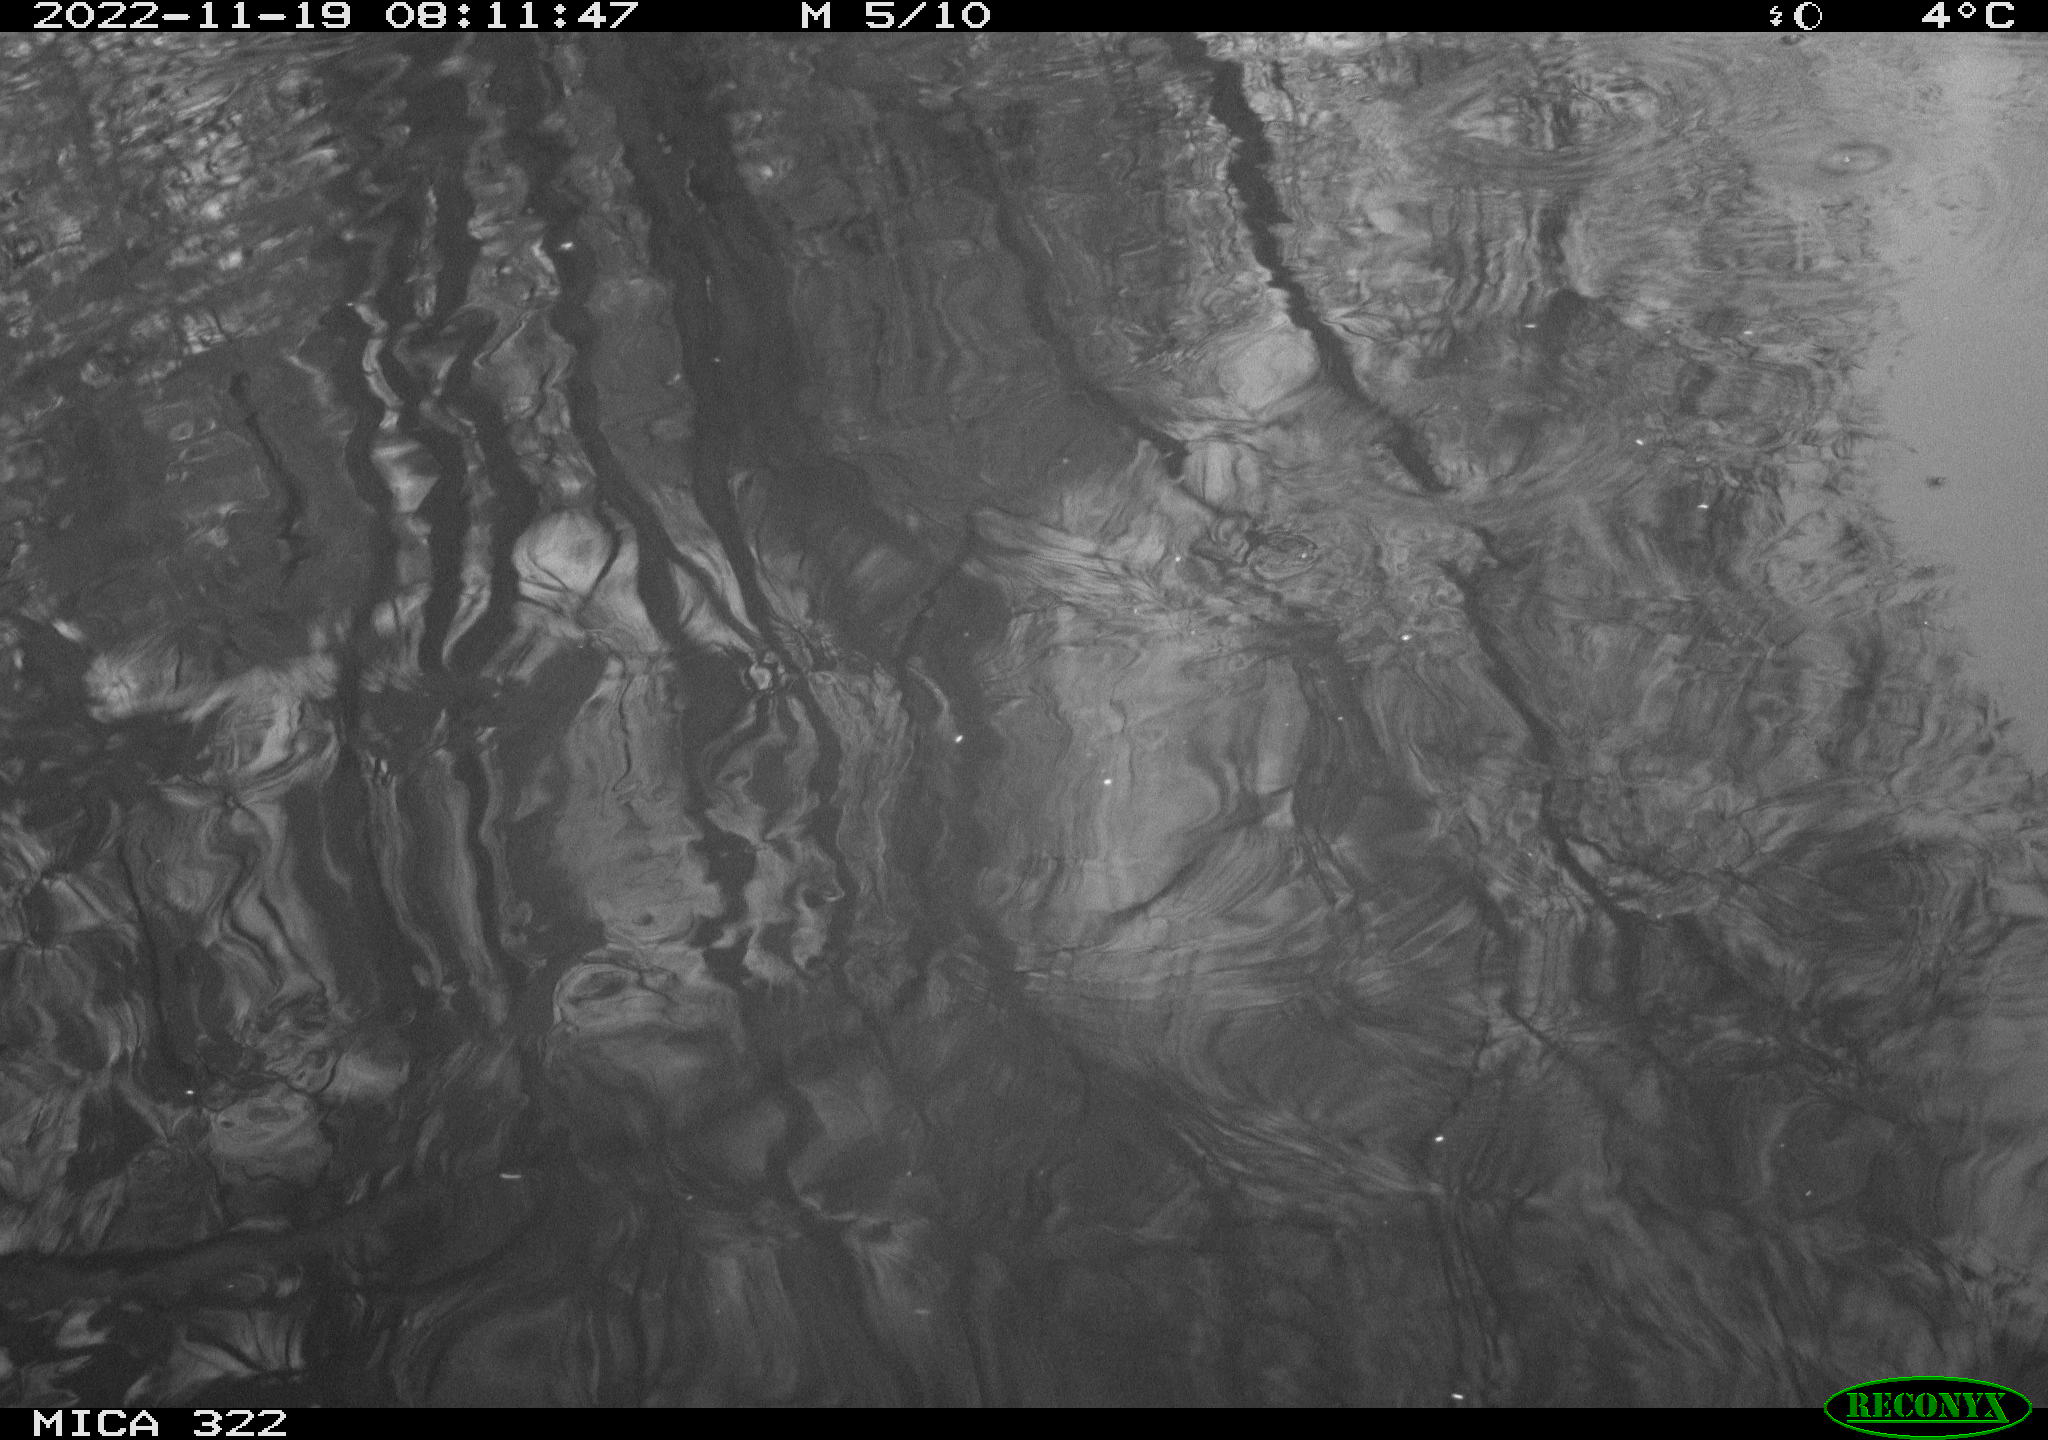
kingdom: Animalia
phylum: Chordata
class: Mammalia
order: Rodentia
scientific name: Rodentia
